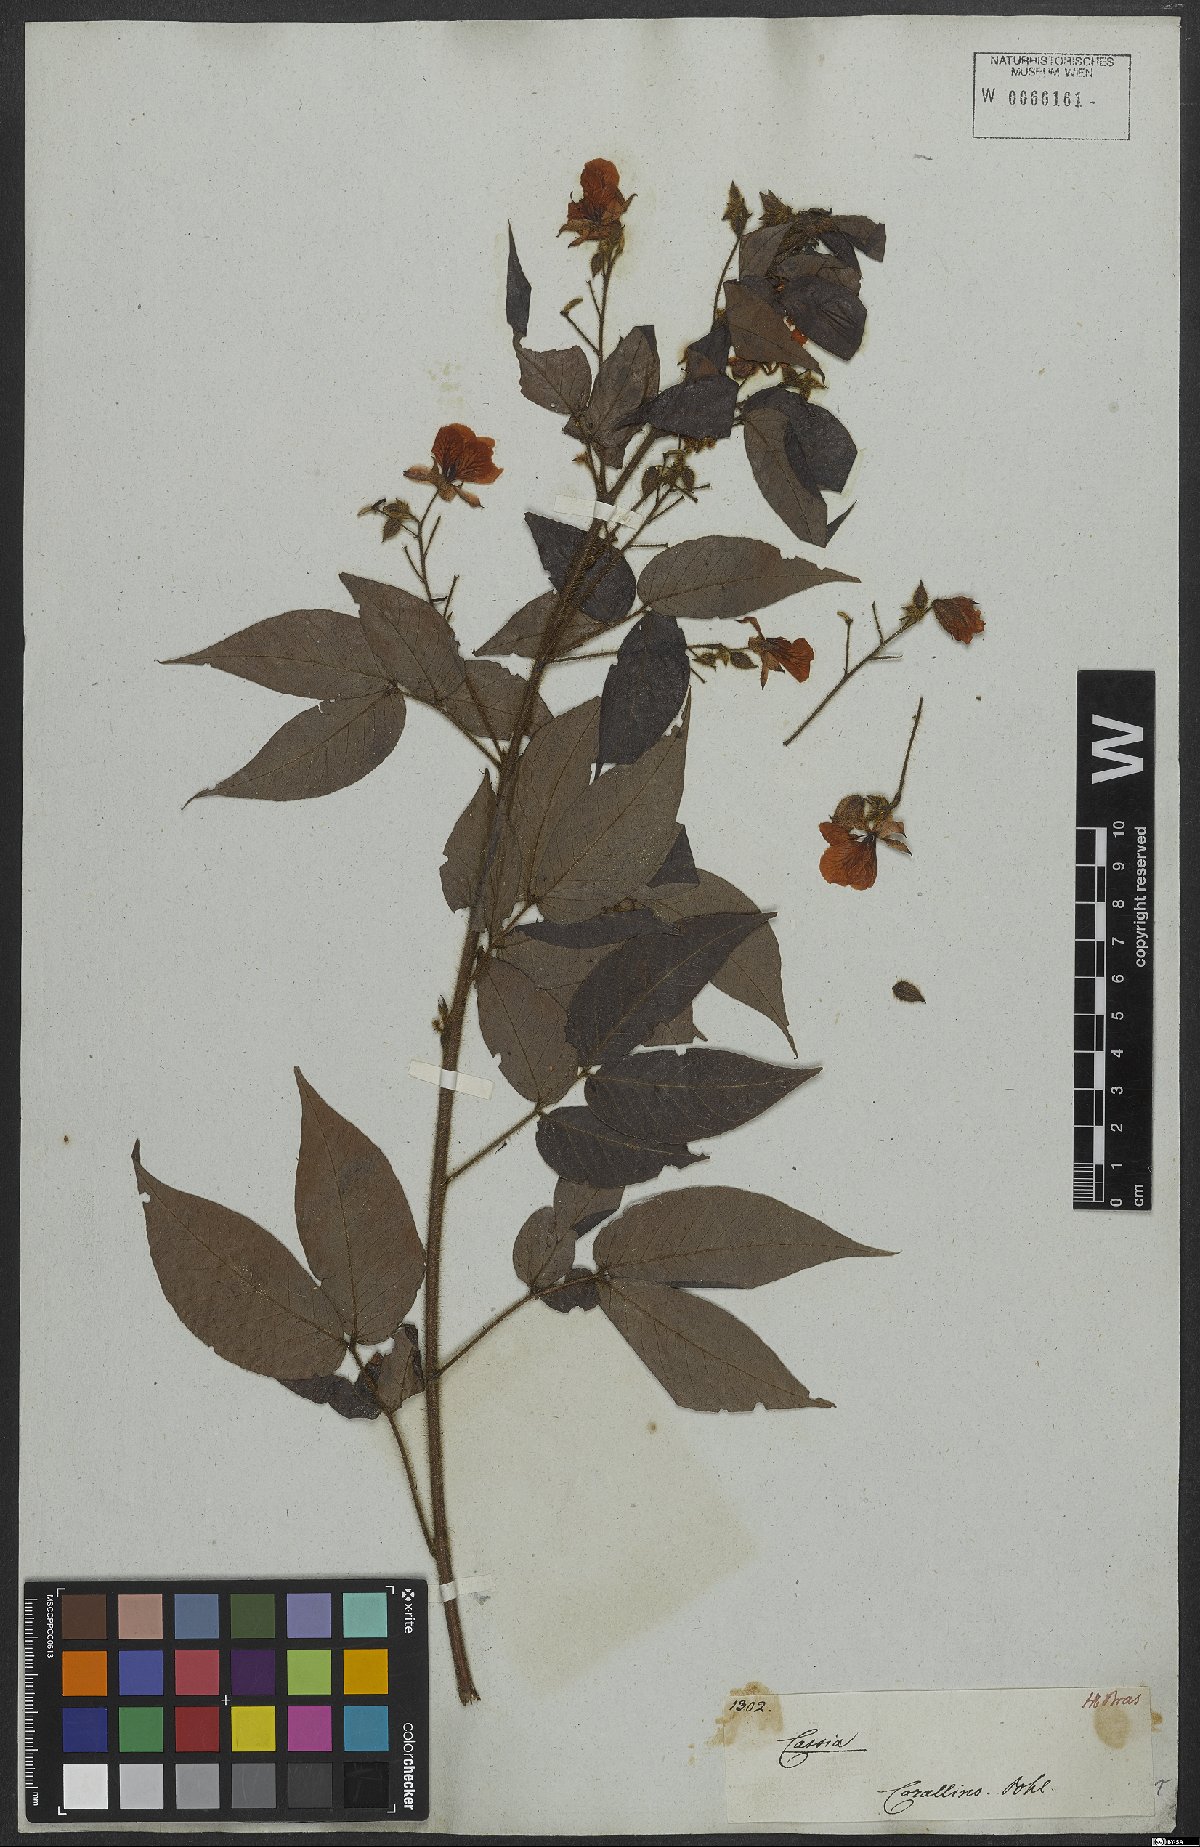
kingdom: Plantae
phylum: Tracheophyta
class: Magnoliopsida
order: Fabales
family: Fabaceae
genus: Chamaecrista
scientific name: Chamaecrista punctata
